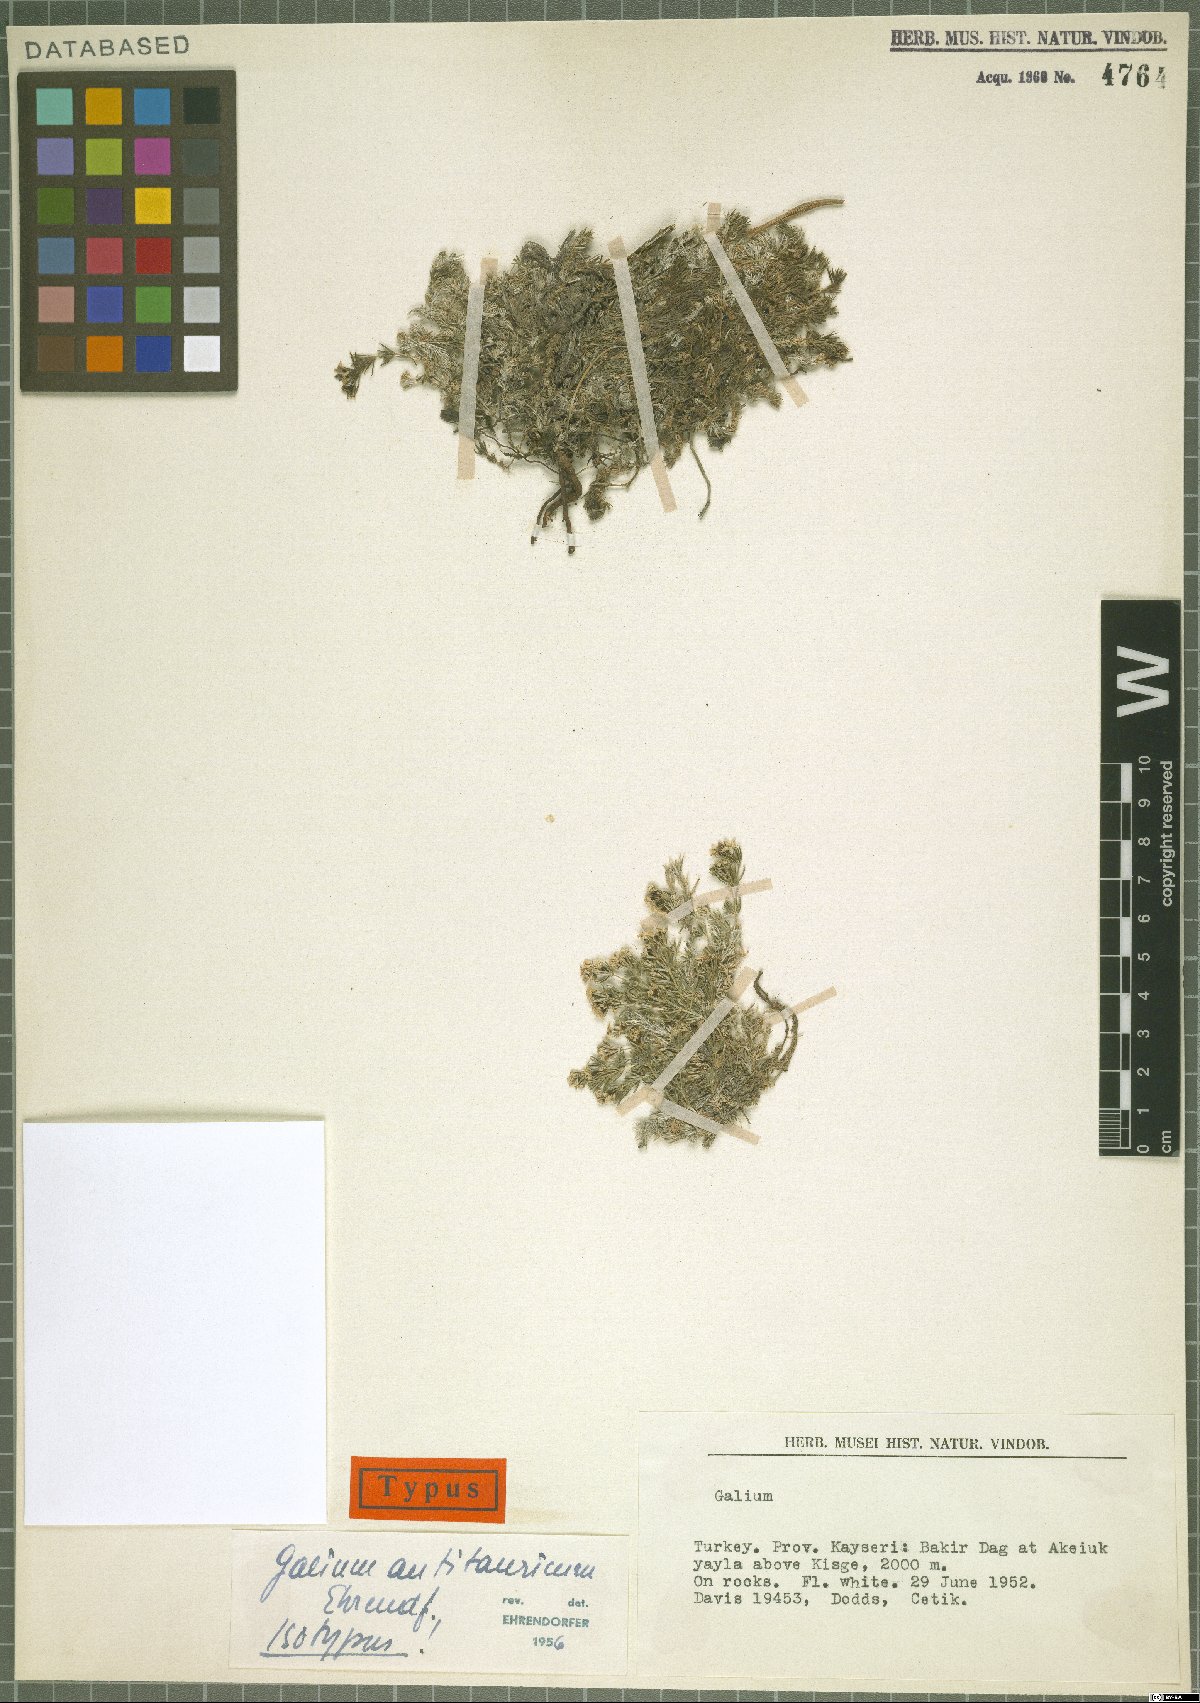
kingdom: Plantae
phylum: Tracheophyta
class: Magnoliopsida
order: Gentianales
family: Rubiaceae
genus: Galium
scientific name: Galium antitauricum
